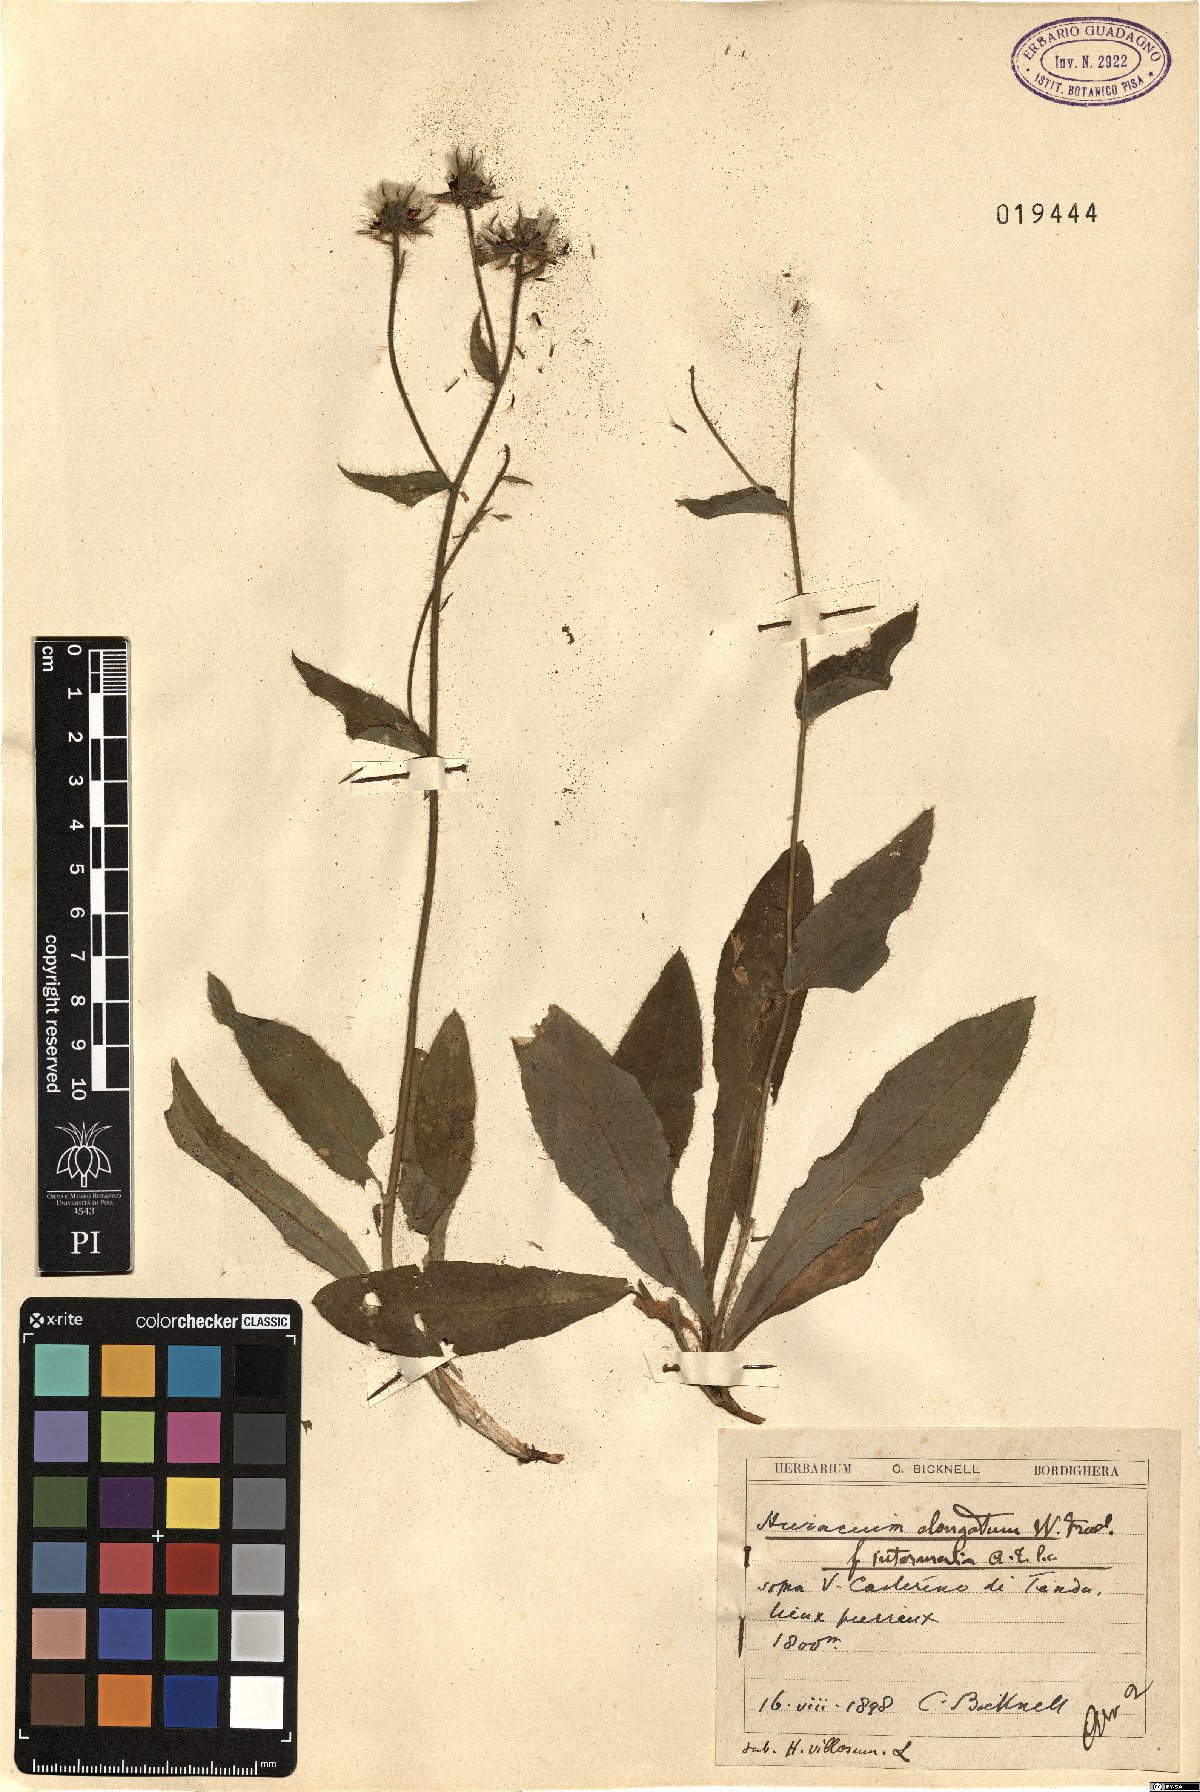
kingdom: Plantae
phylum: Tracheophyta
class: Magnoliopsida
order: Asterales
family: Asteraceae
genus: Hieracium
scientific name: Hieracium valdepilosum
